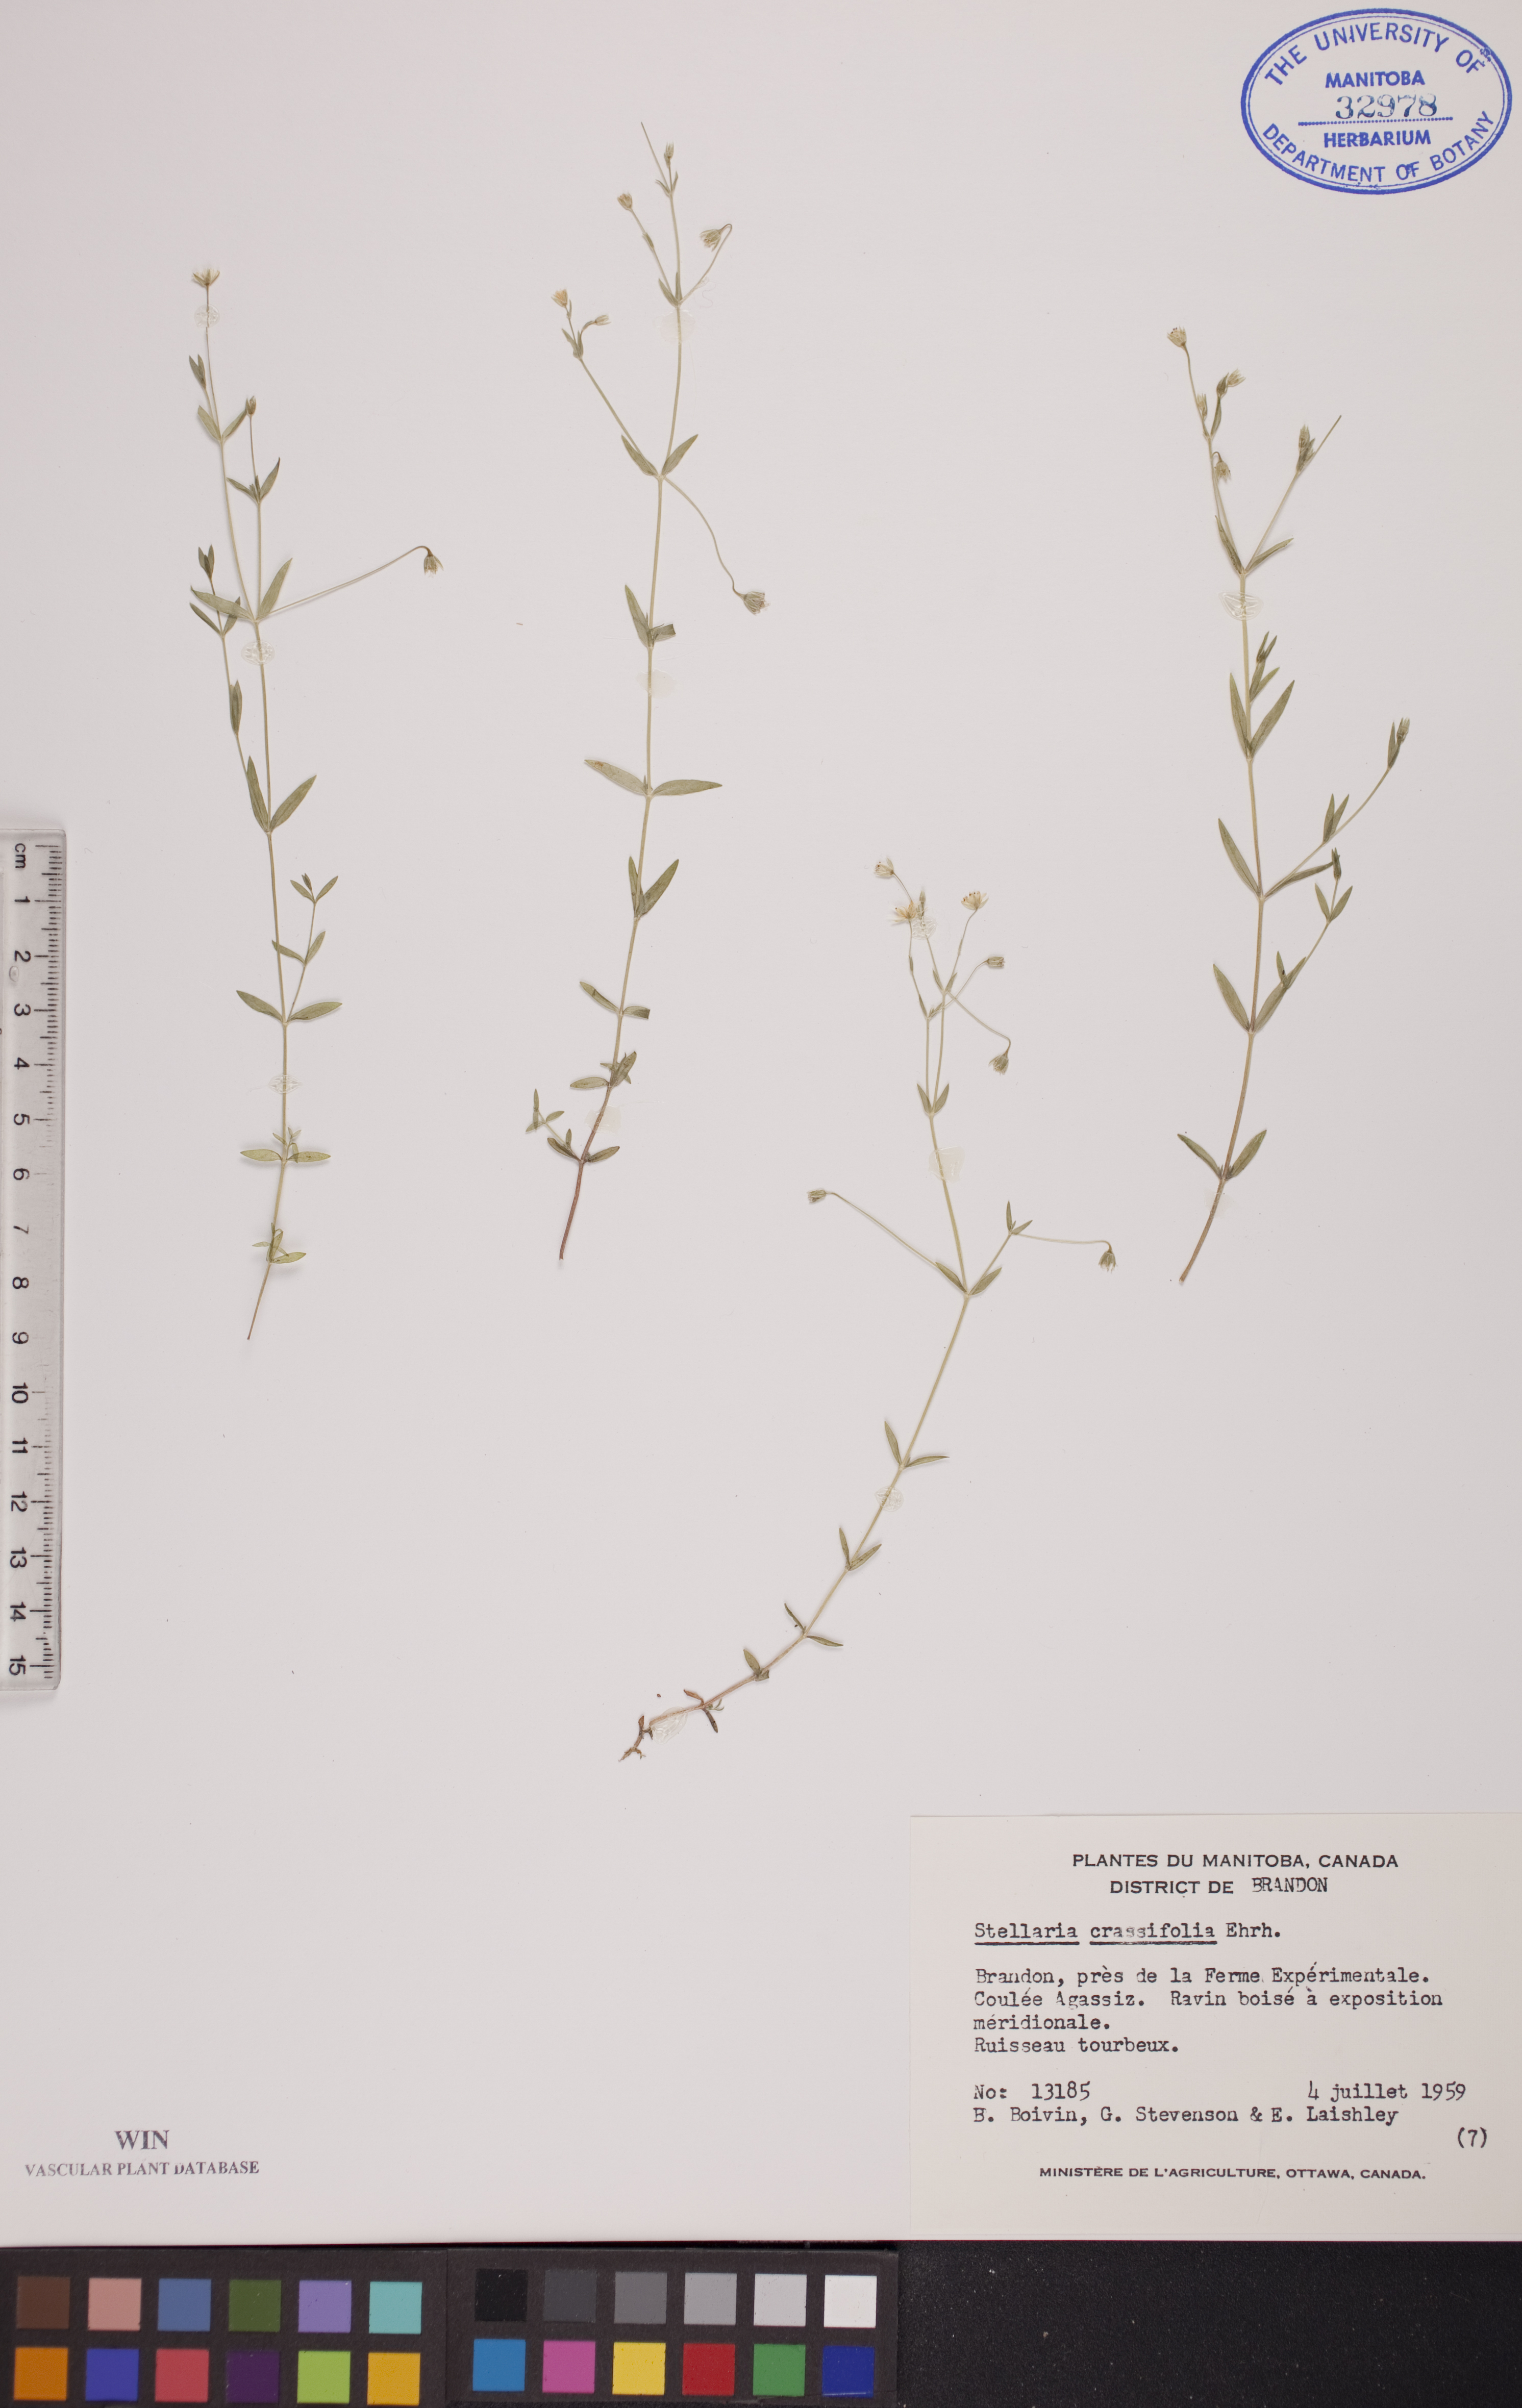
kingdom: Plantae
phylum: Tracheophyta
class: Magnoliopsida
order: Caryophyllales
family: Caryophyllaceae
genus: Stellaria
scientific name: Stellaria crassifolia
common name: Fleshy starwort
